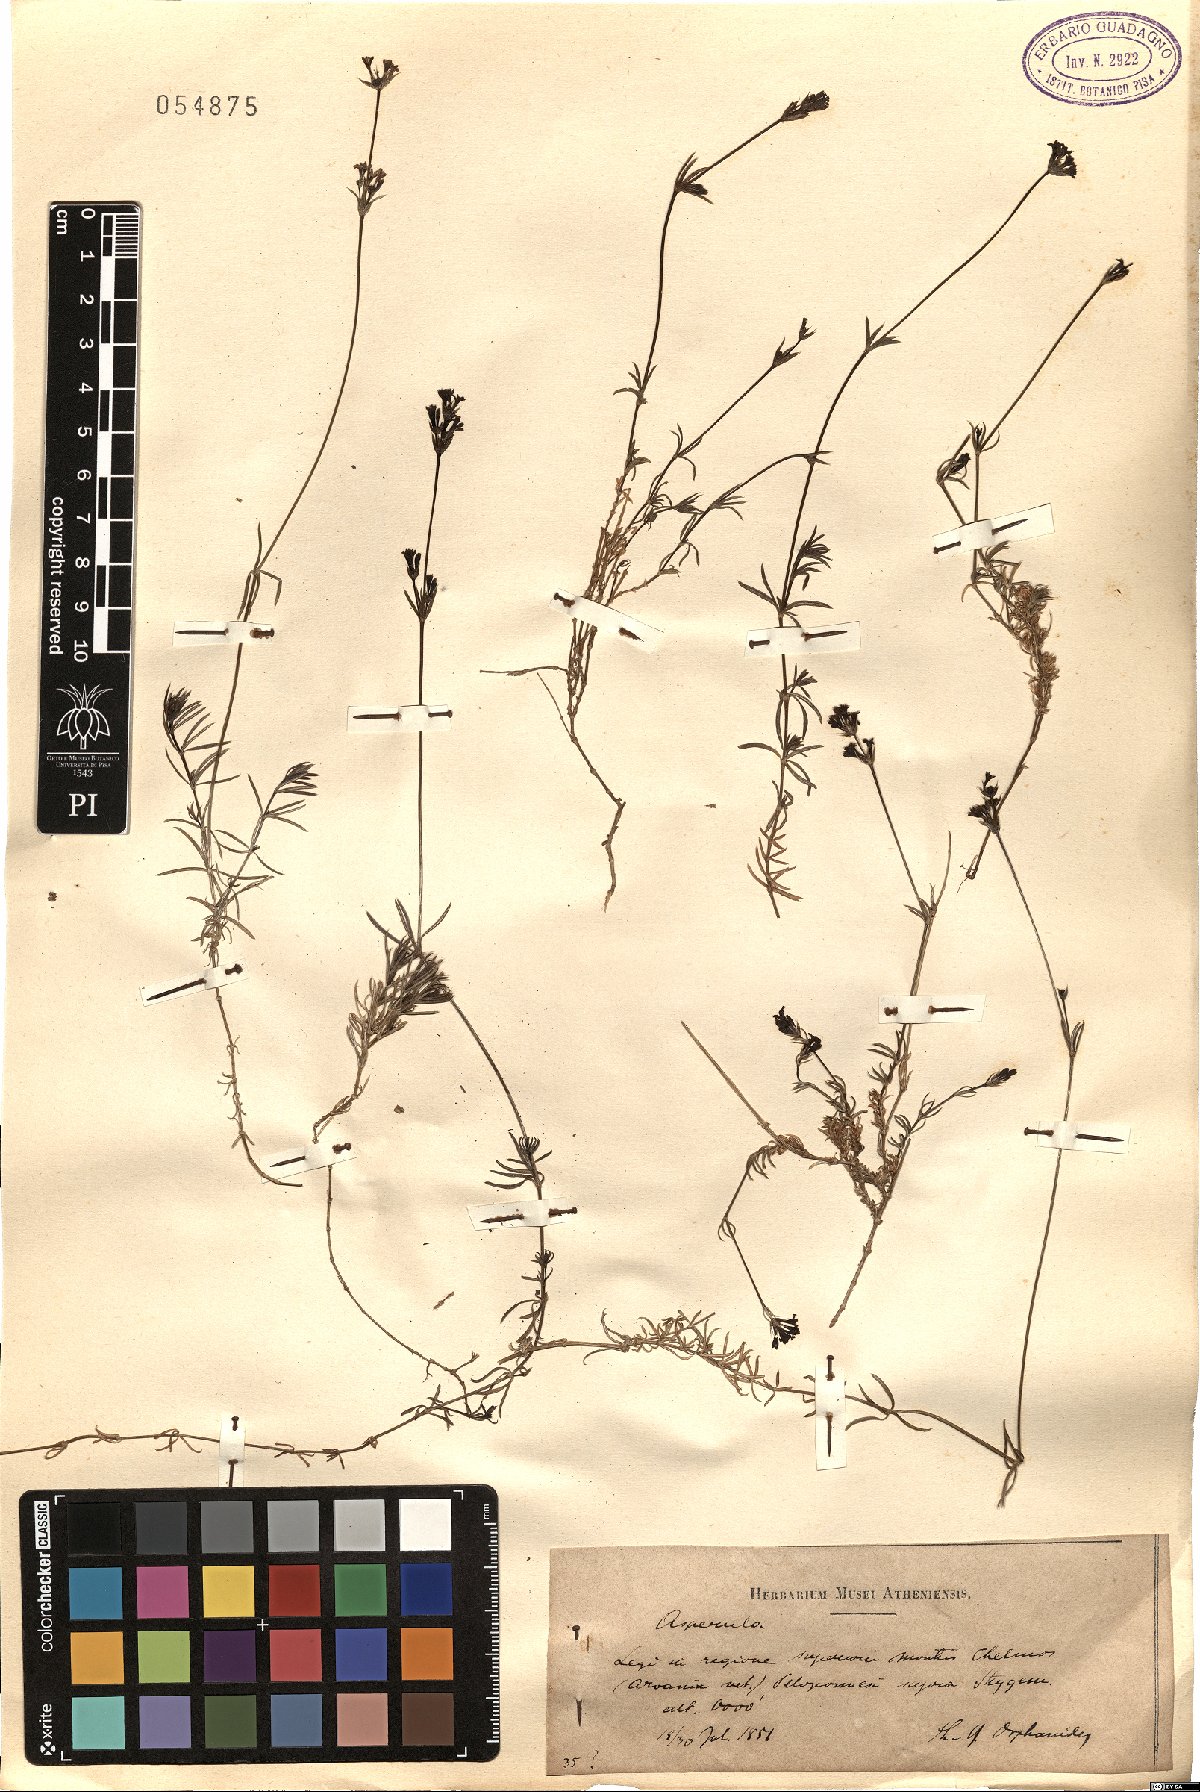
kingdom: Plantae
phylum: Tracheophyta
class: Magnoliopsida
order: Gentianales
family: Rubiaceae
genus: Asperula
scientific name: Asperula
